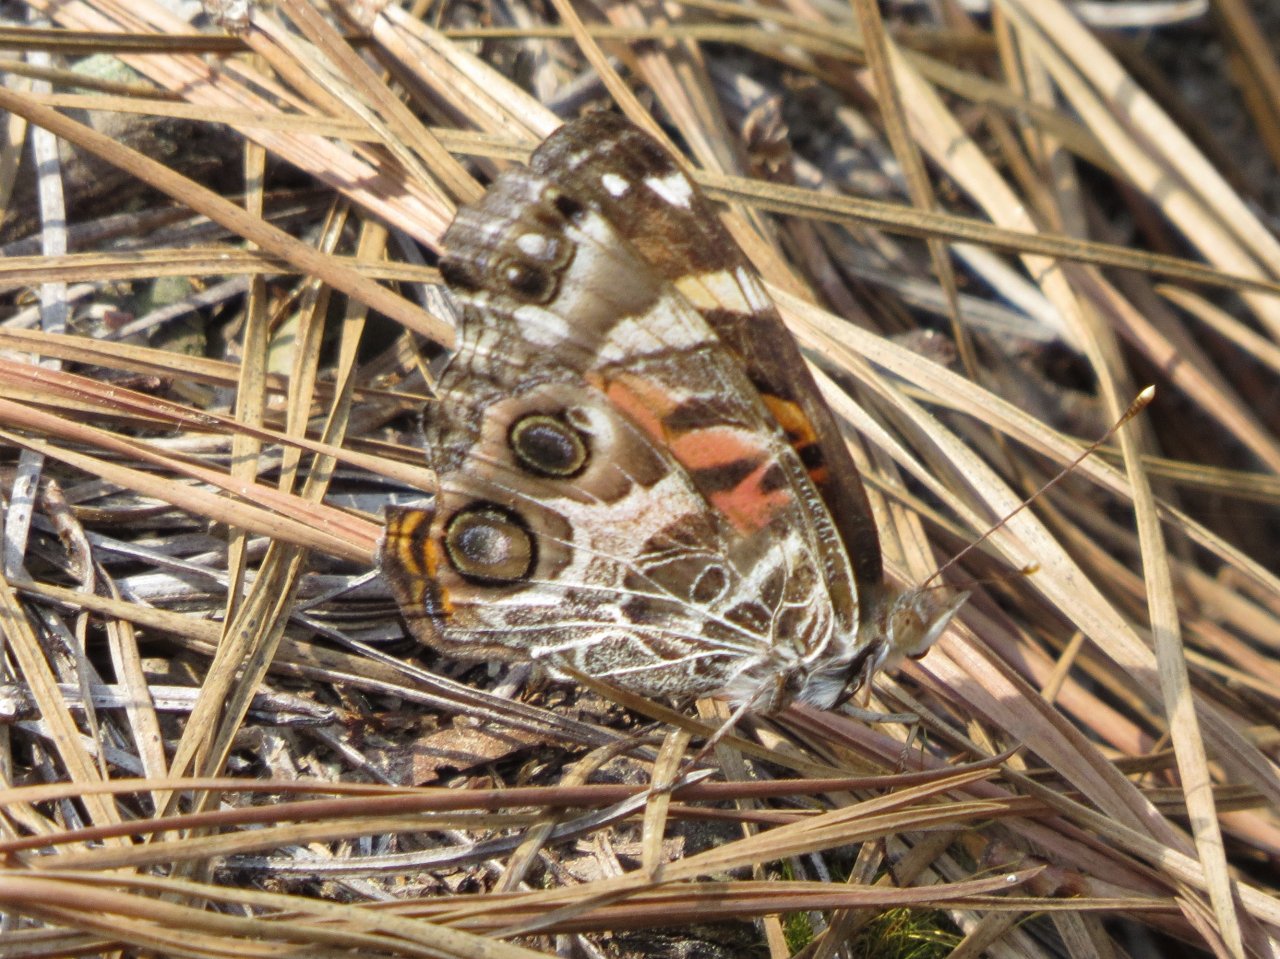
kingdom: Animalia
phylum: Arthropoda
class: Insecta
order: Lepidoptera
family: Nymphalidae
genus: Vanessa
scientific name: Vanessa virginiensis
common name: American Lady
